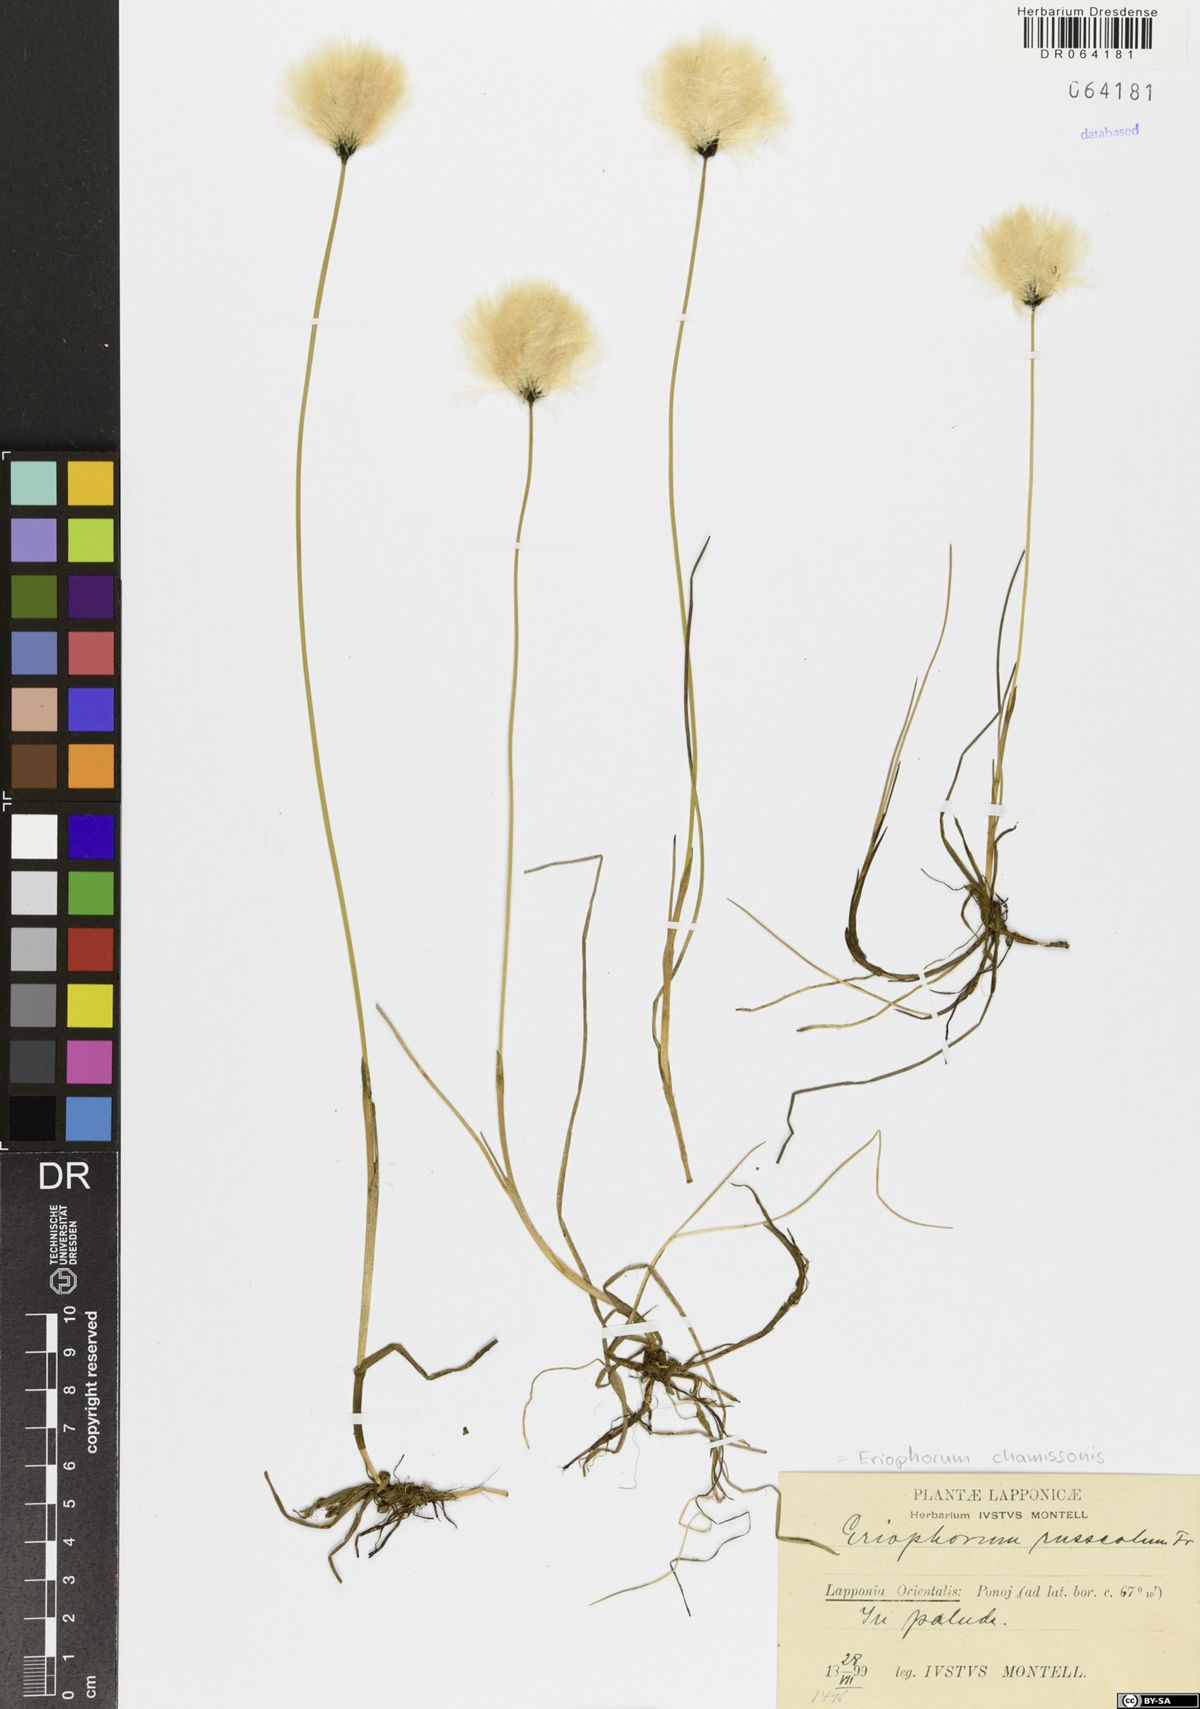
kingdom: Plantae
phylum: Tracheophyta
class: Liliopsida
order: Poales
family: Cyperaceae
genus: Eriophorum
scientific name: Eriophorum chamissonis
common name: Chamisso's cottongrass
